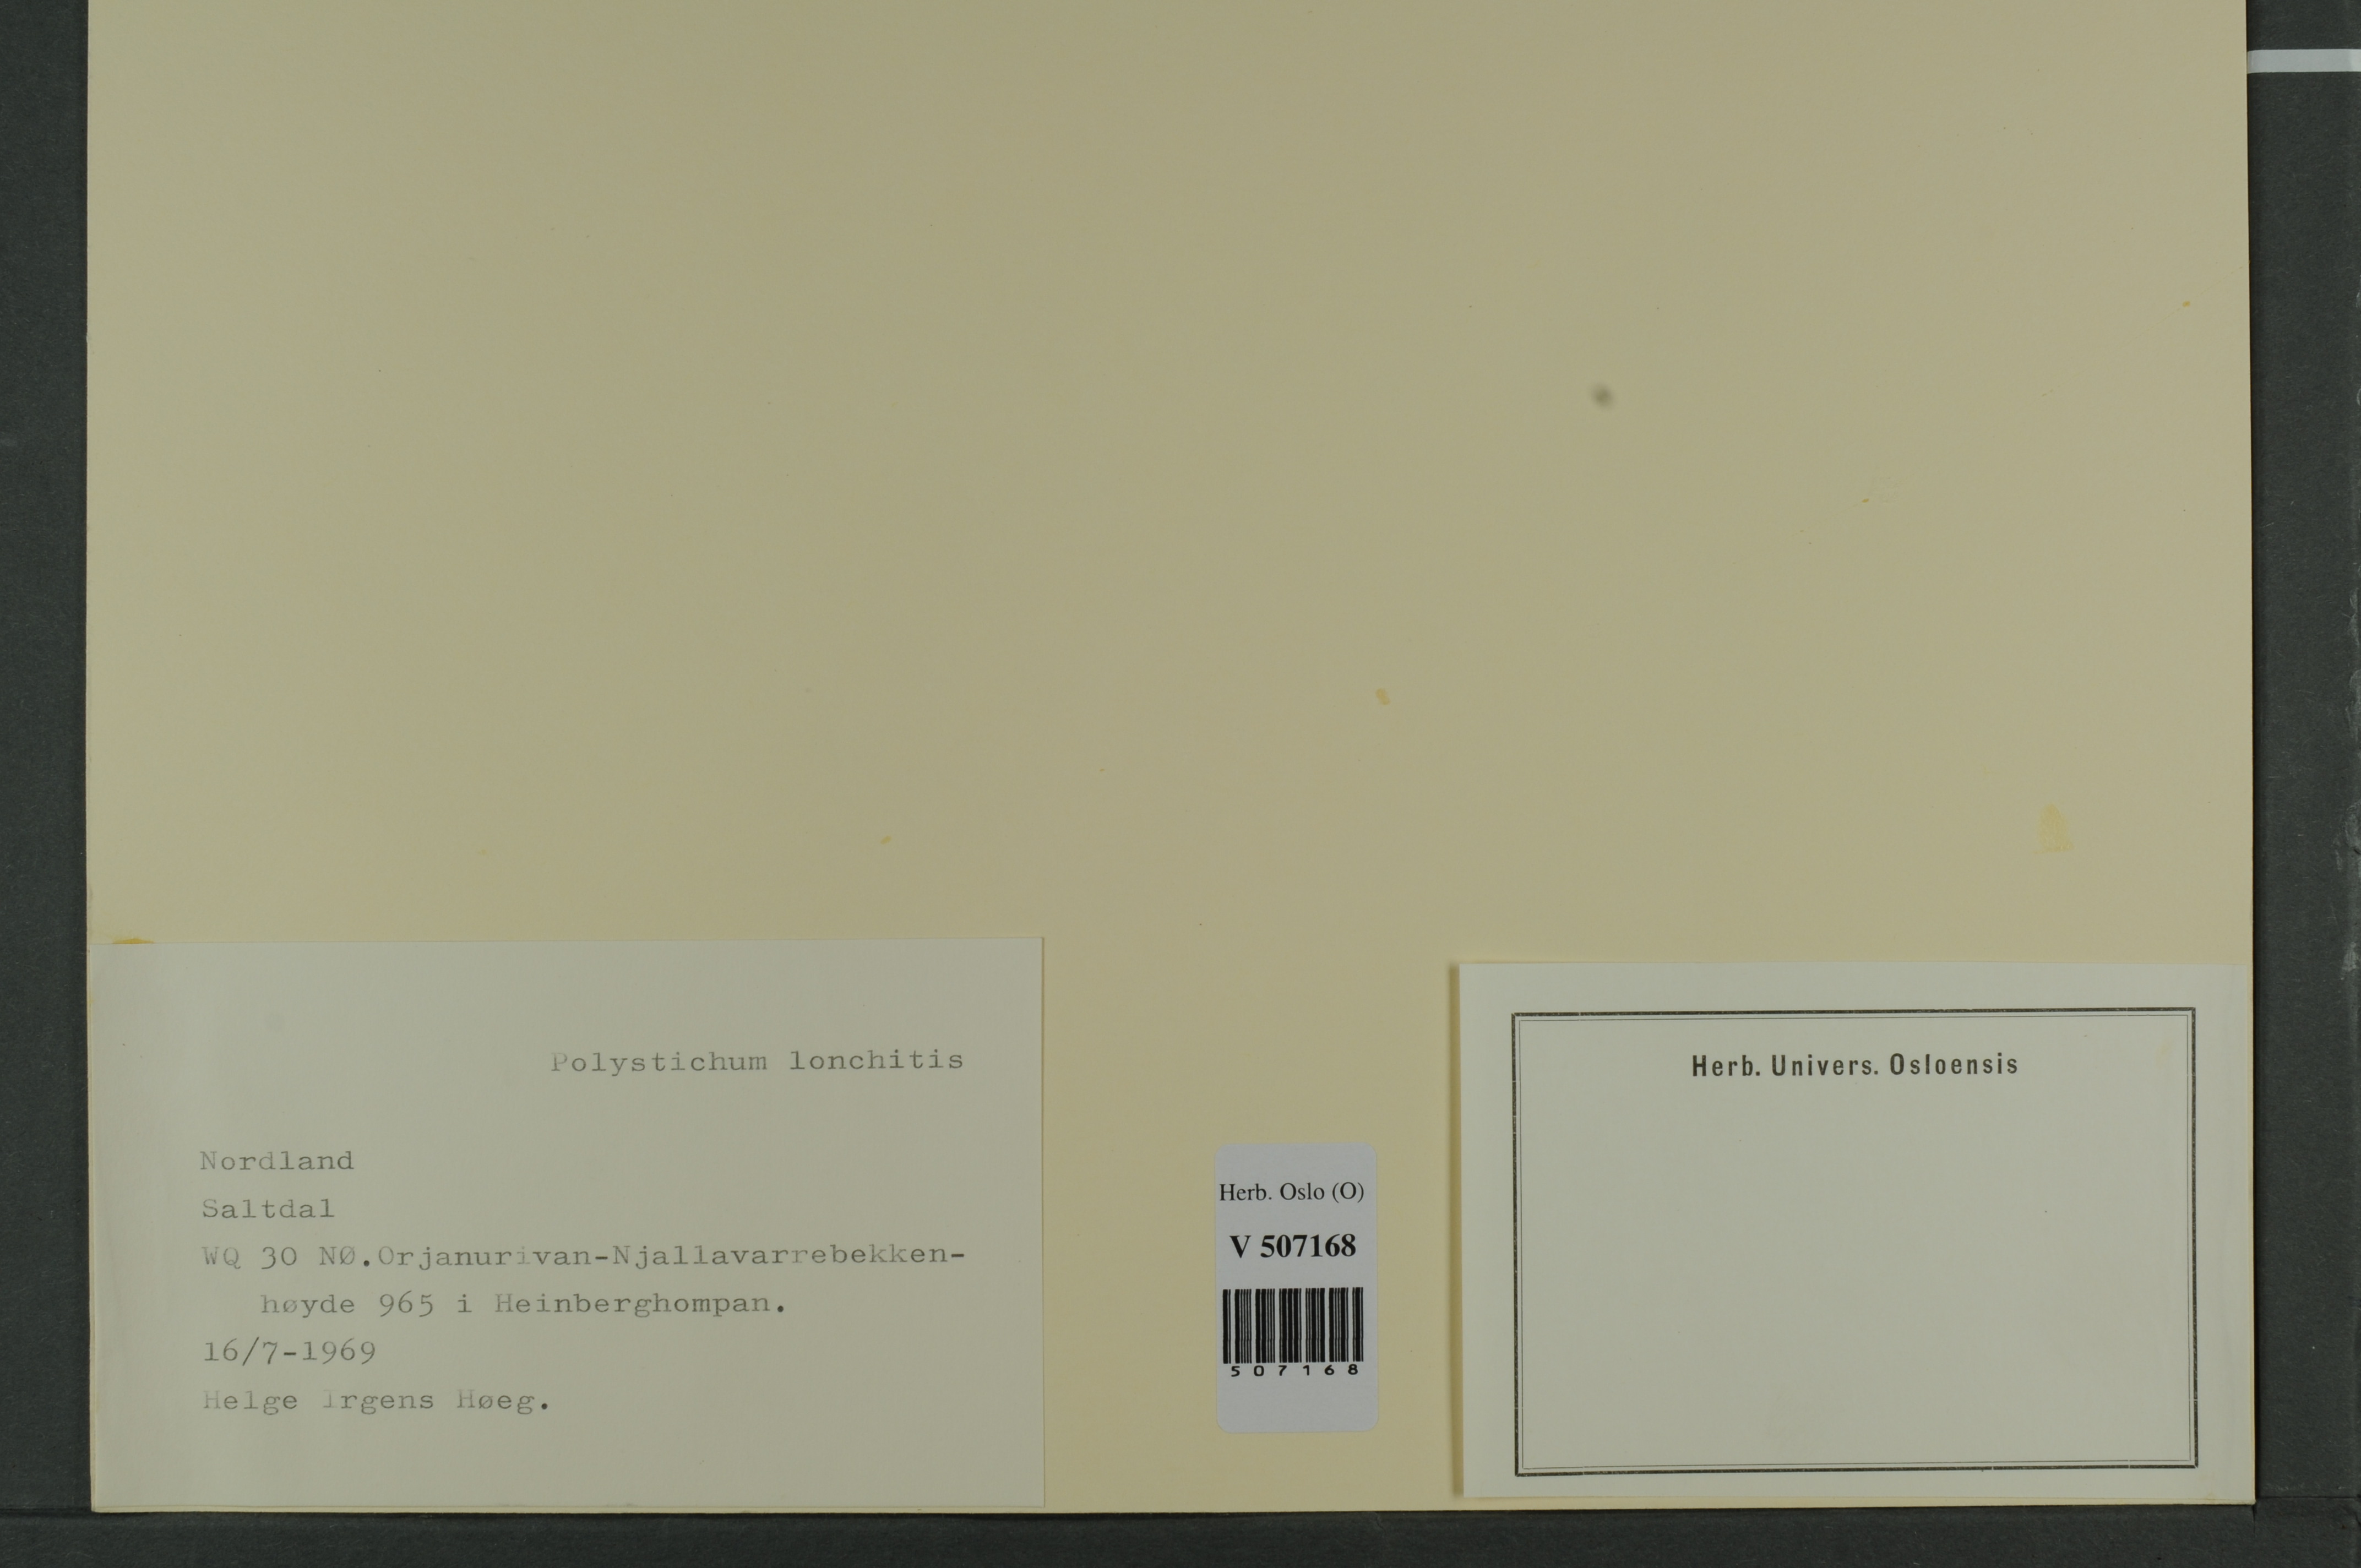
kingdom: Plantae
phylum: Tracheophyta
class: Polypodiopsida
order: Polypodiales
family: Dryopteridaceae
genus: Polystichum
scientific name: Polystichum lonchitis
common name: Holly fern
